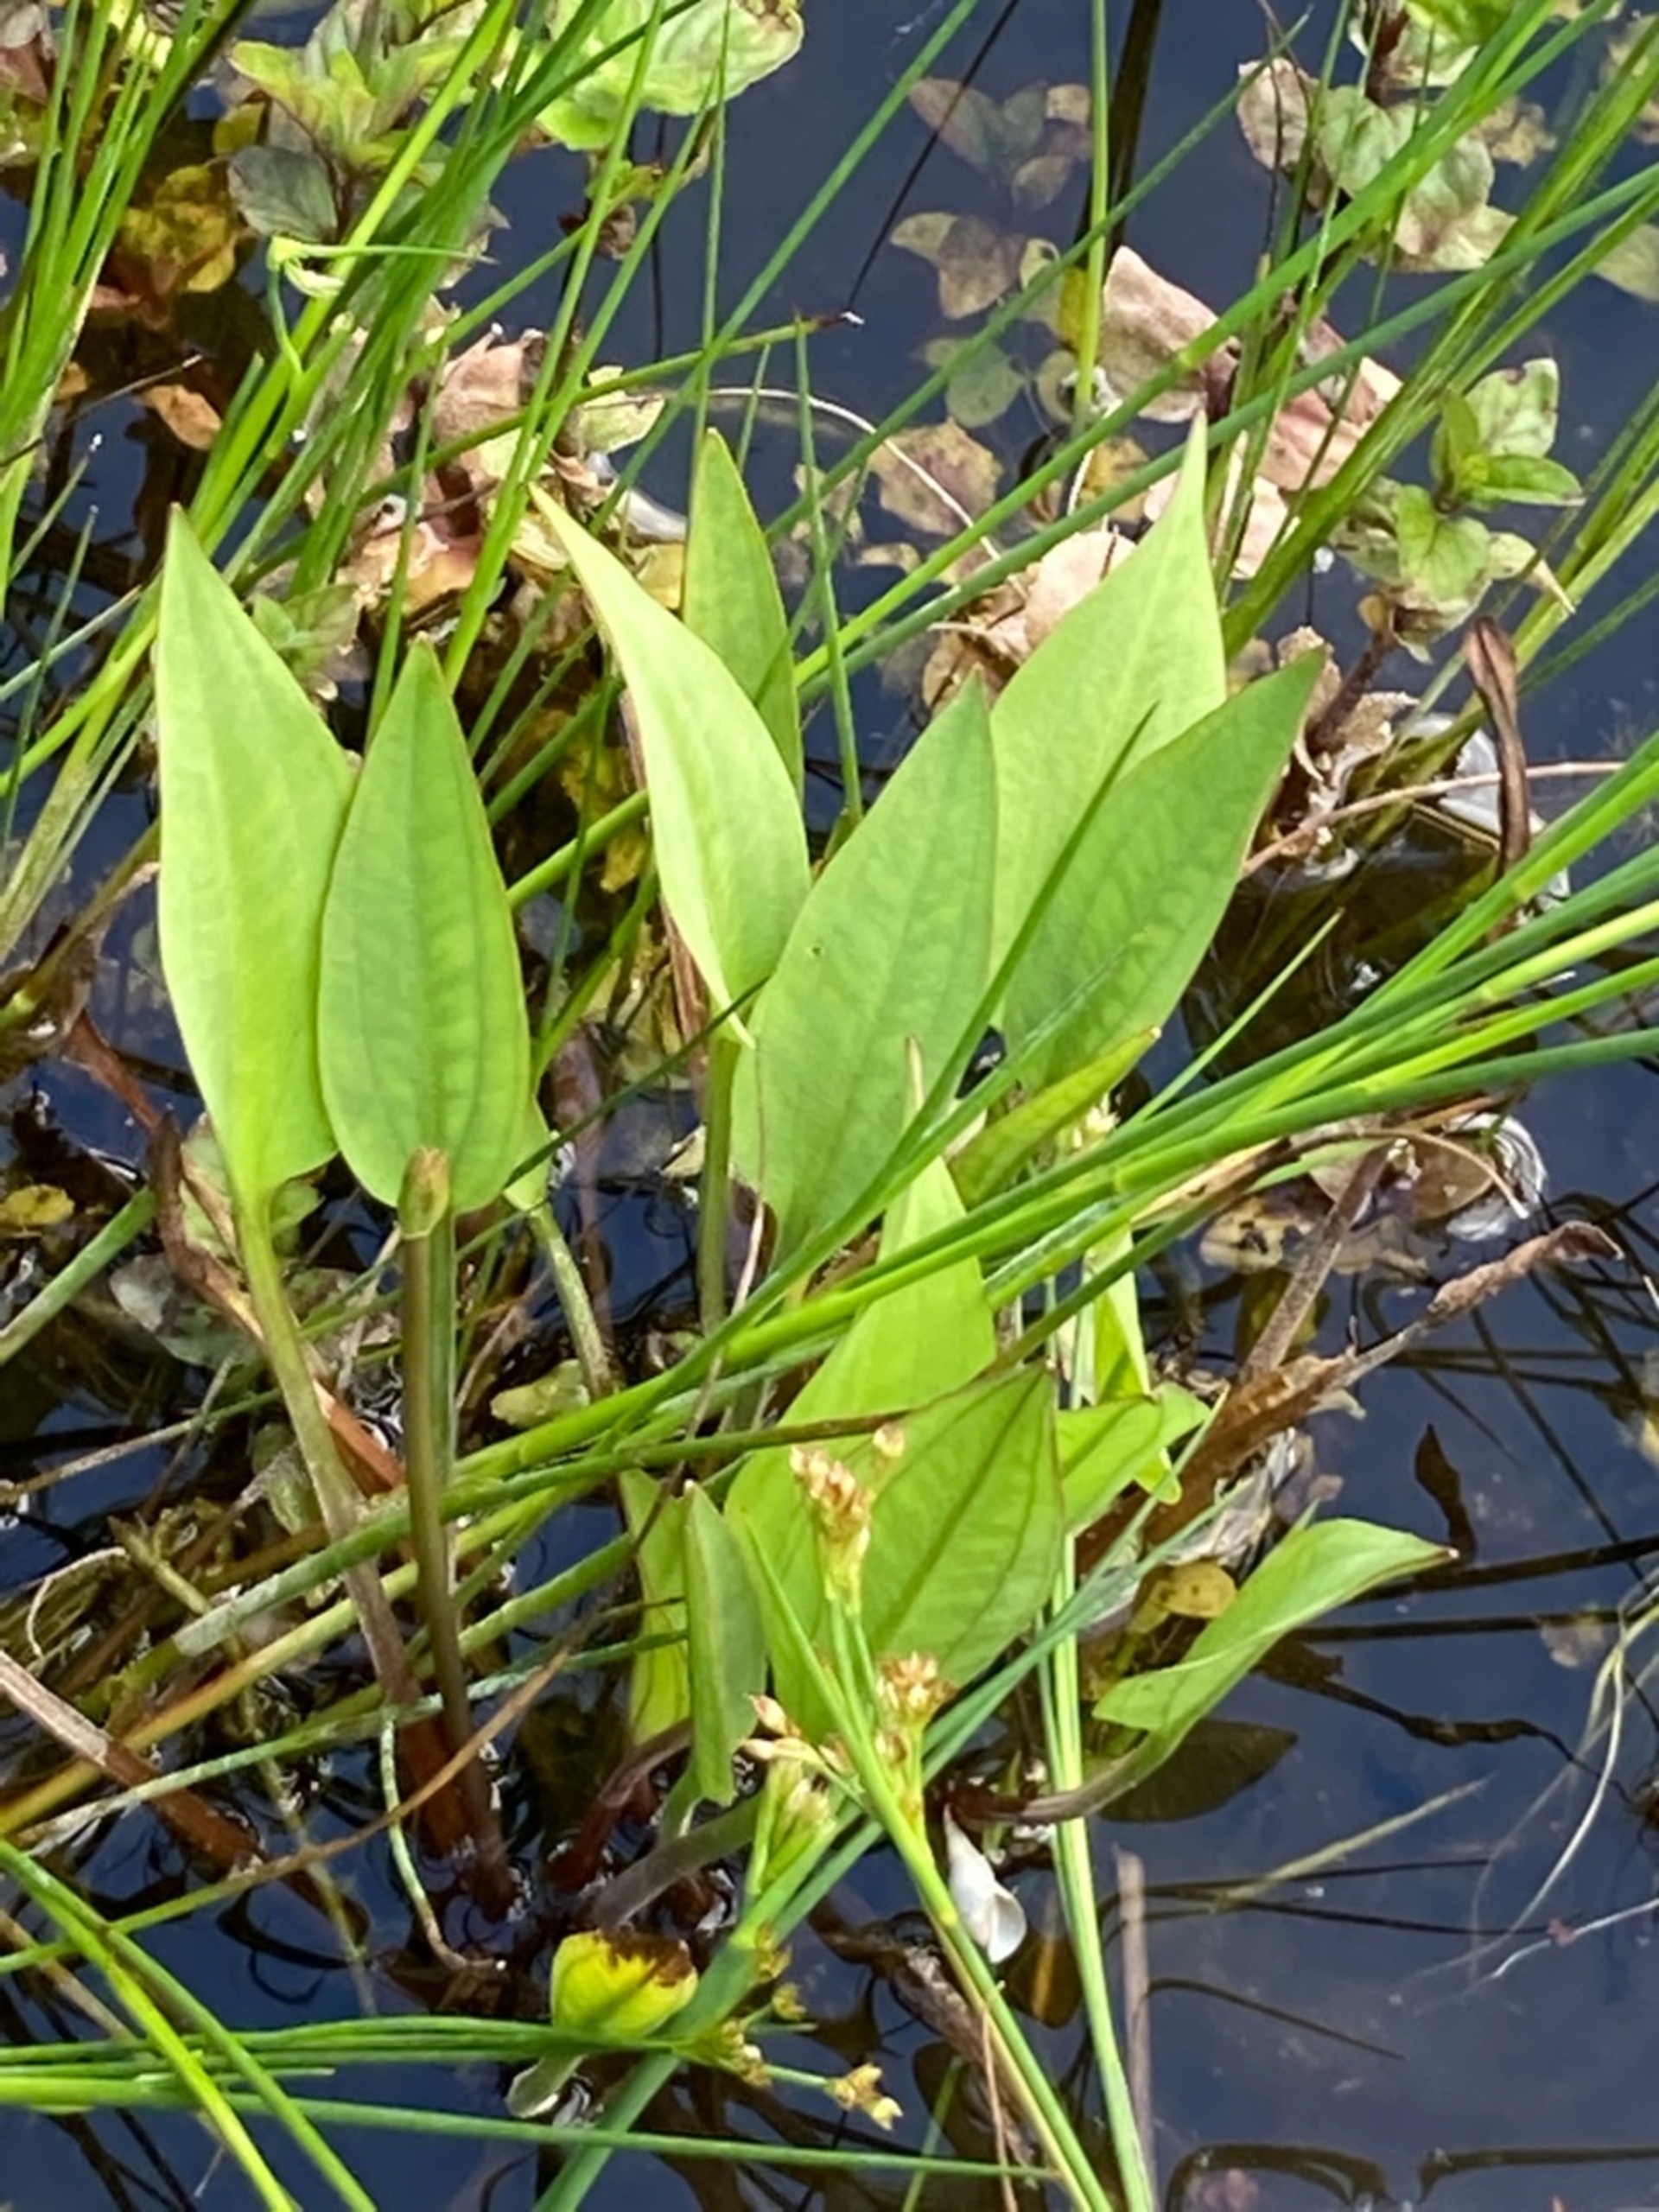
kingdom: Plantae
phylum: Tracheophyta
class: Liliopsida
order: Alismatales
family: Alismataceae
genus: Alisma
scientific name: Alisma plantago-aquatica
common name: Vejbred-skeblad
